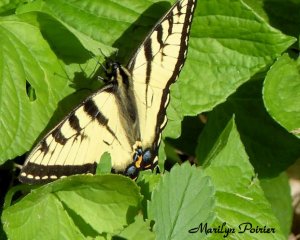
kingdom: Animalia
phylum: Arthropoda
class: Insecta
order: Lepidoptera
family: Papilionidae
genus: Pterourus
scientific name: Pterourus canadensis
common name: Canadian Tiger Swallowtail
